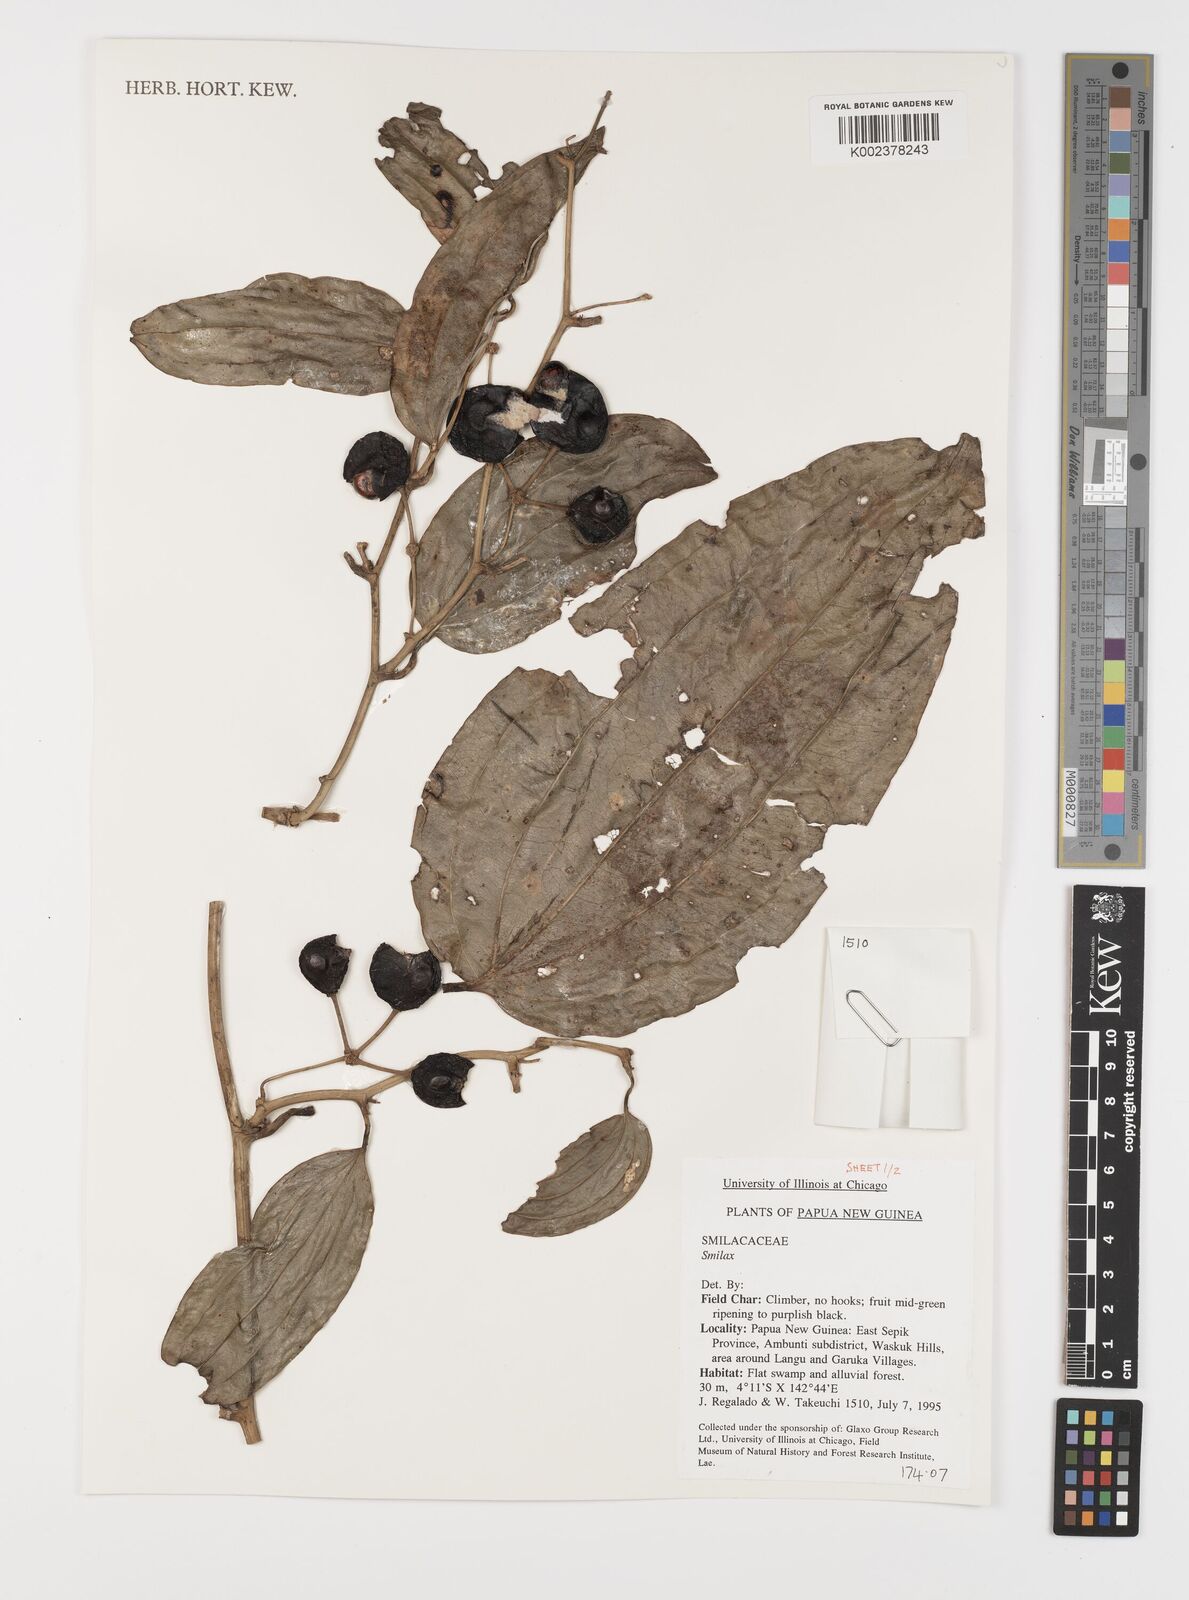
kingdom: Plantae
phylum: Tracheophyta
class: Liliopsida
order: Liliales
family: Smilacaceae
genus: Smilax
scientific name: Smilax
